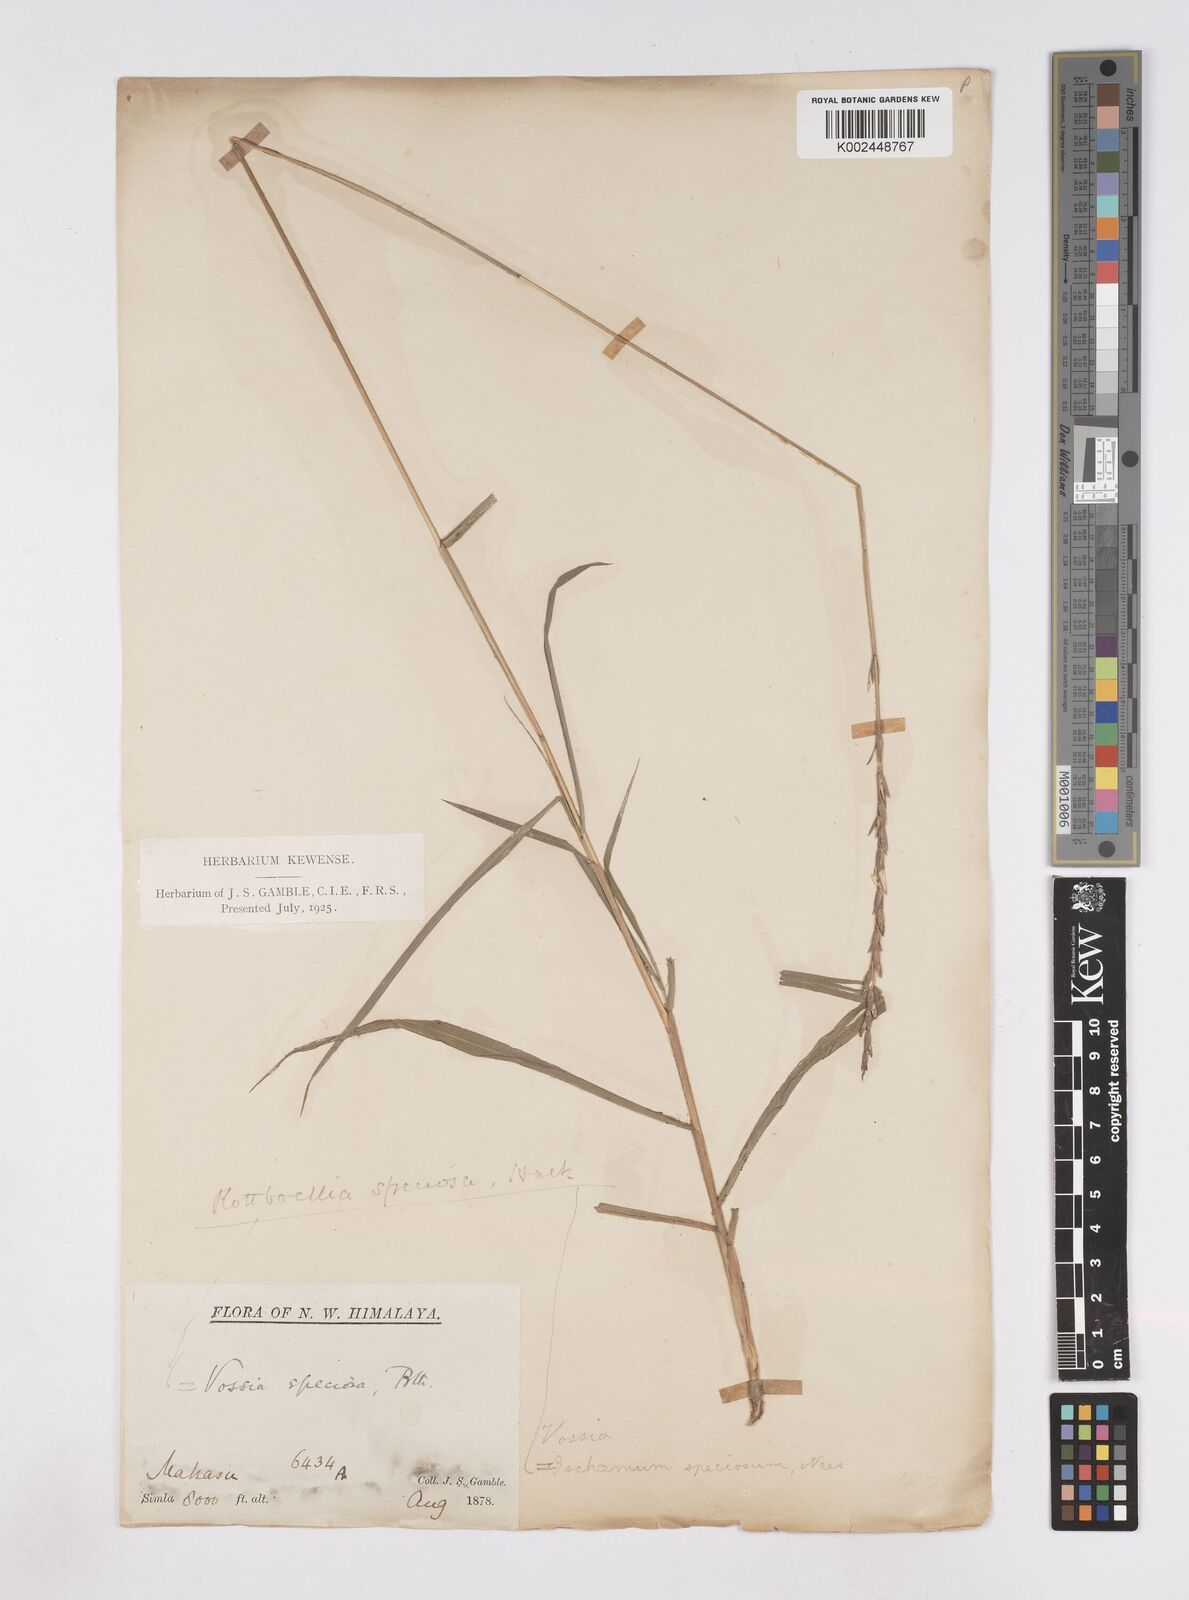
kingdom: Plantae
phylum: Tracheophyta
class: Liliopsida
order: Poales
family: Poaceae
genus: Phacelurus
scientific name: Phacelurus speciosus
